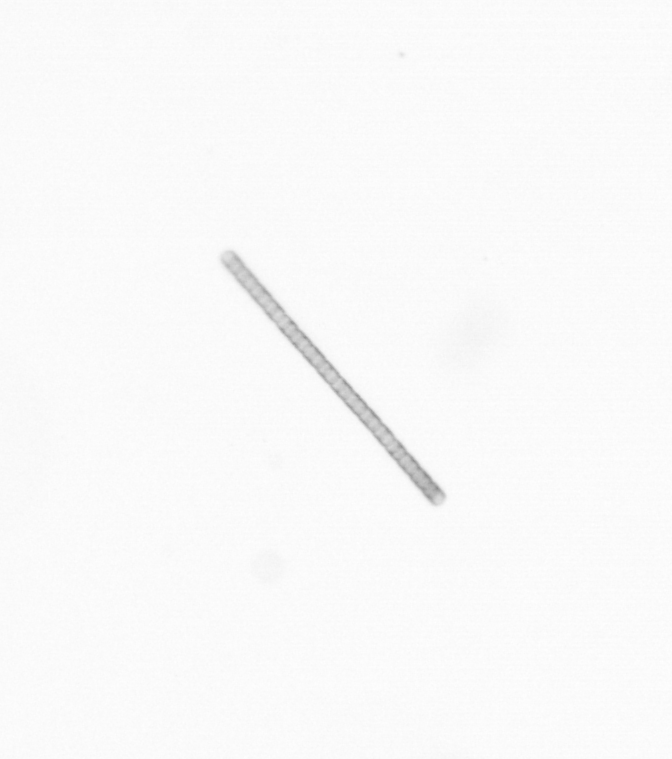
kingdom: Chromista
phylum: Ochrophyta
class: Bacillariophyceae
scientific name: Bacillariophyceae
